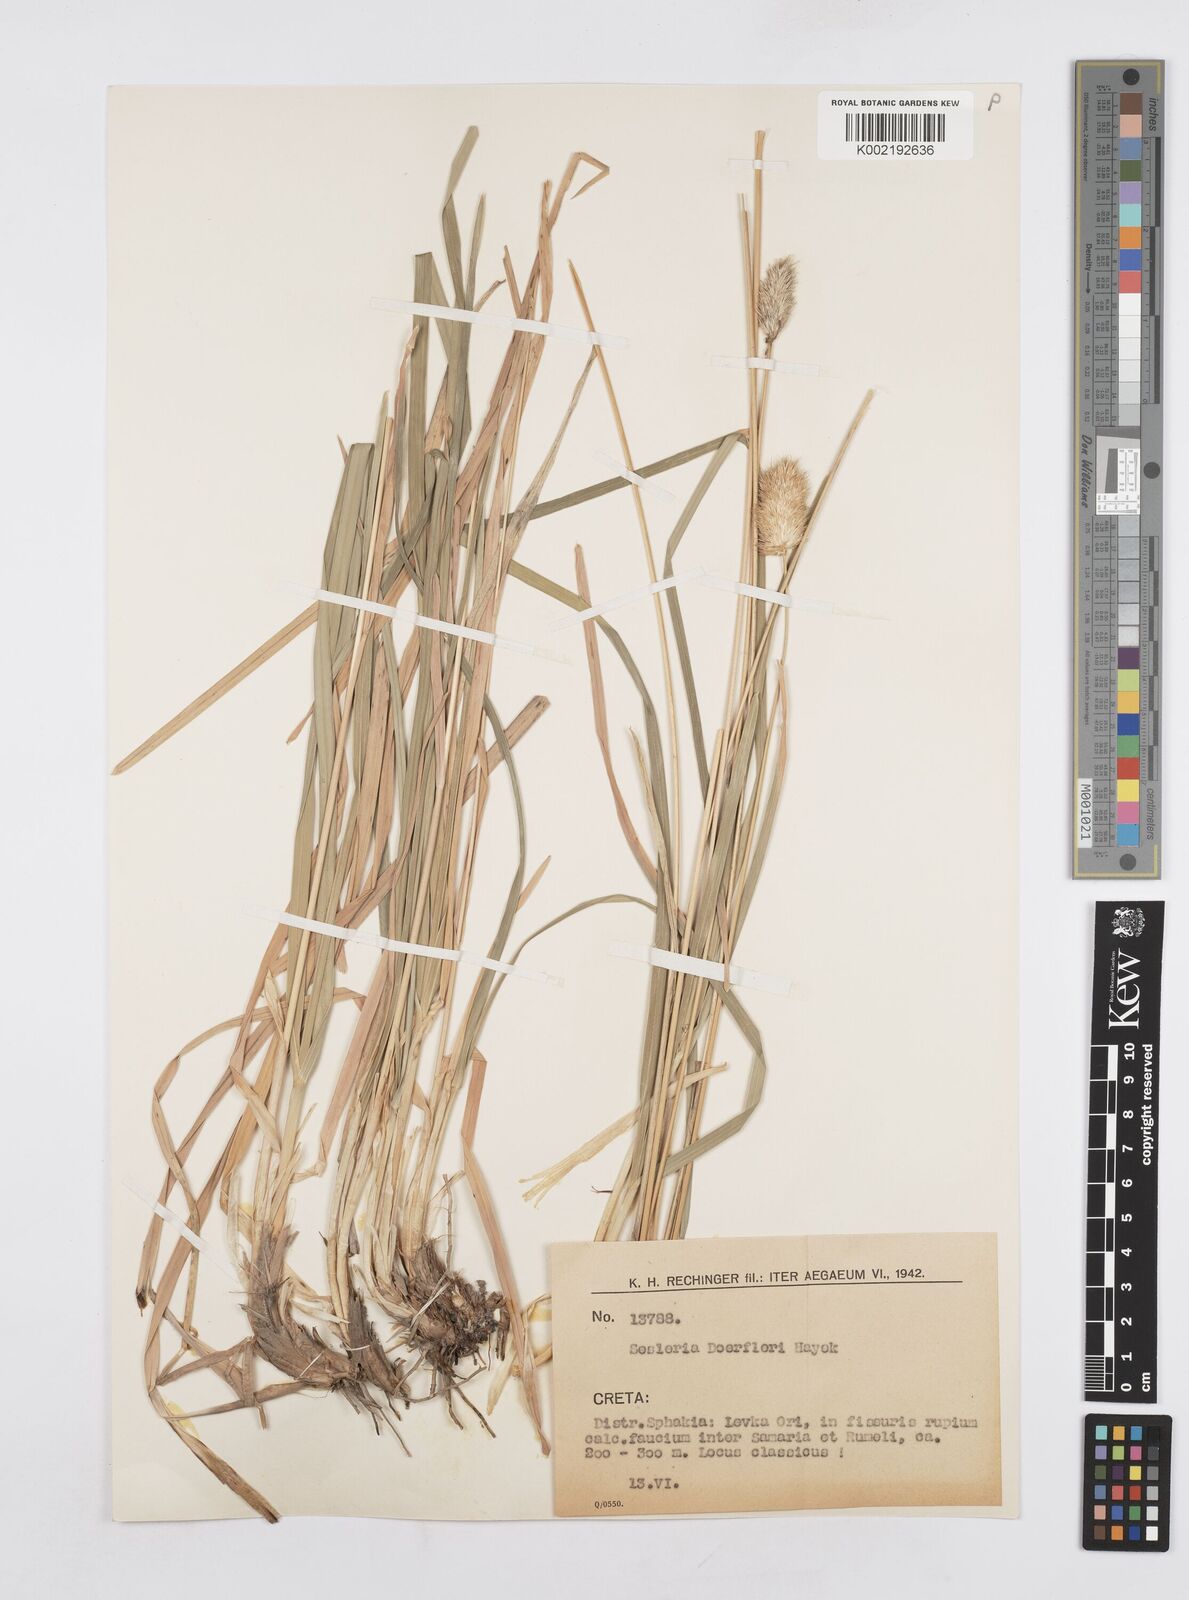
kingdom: Plantae
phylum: Tracheophyta
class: Liliopsida
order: Poales
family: Poaceae
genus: Sesleria
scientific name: Sesleria doerfleri
